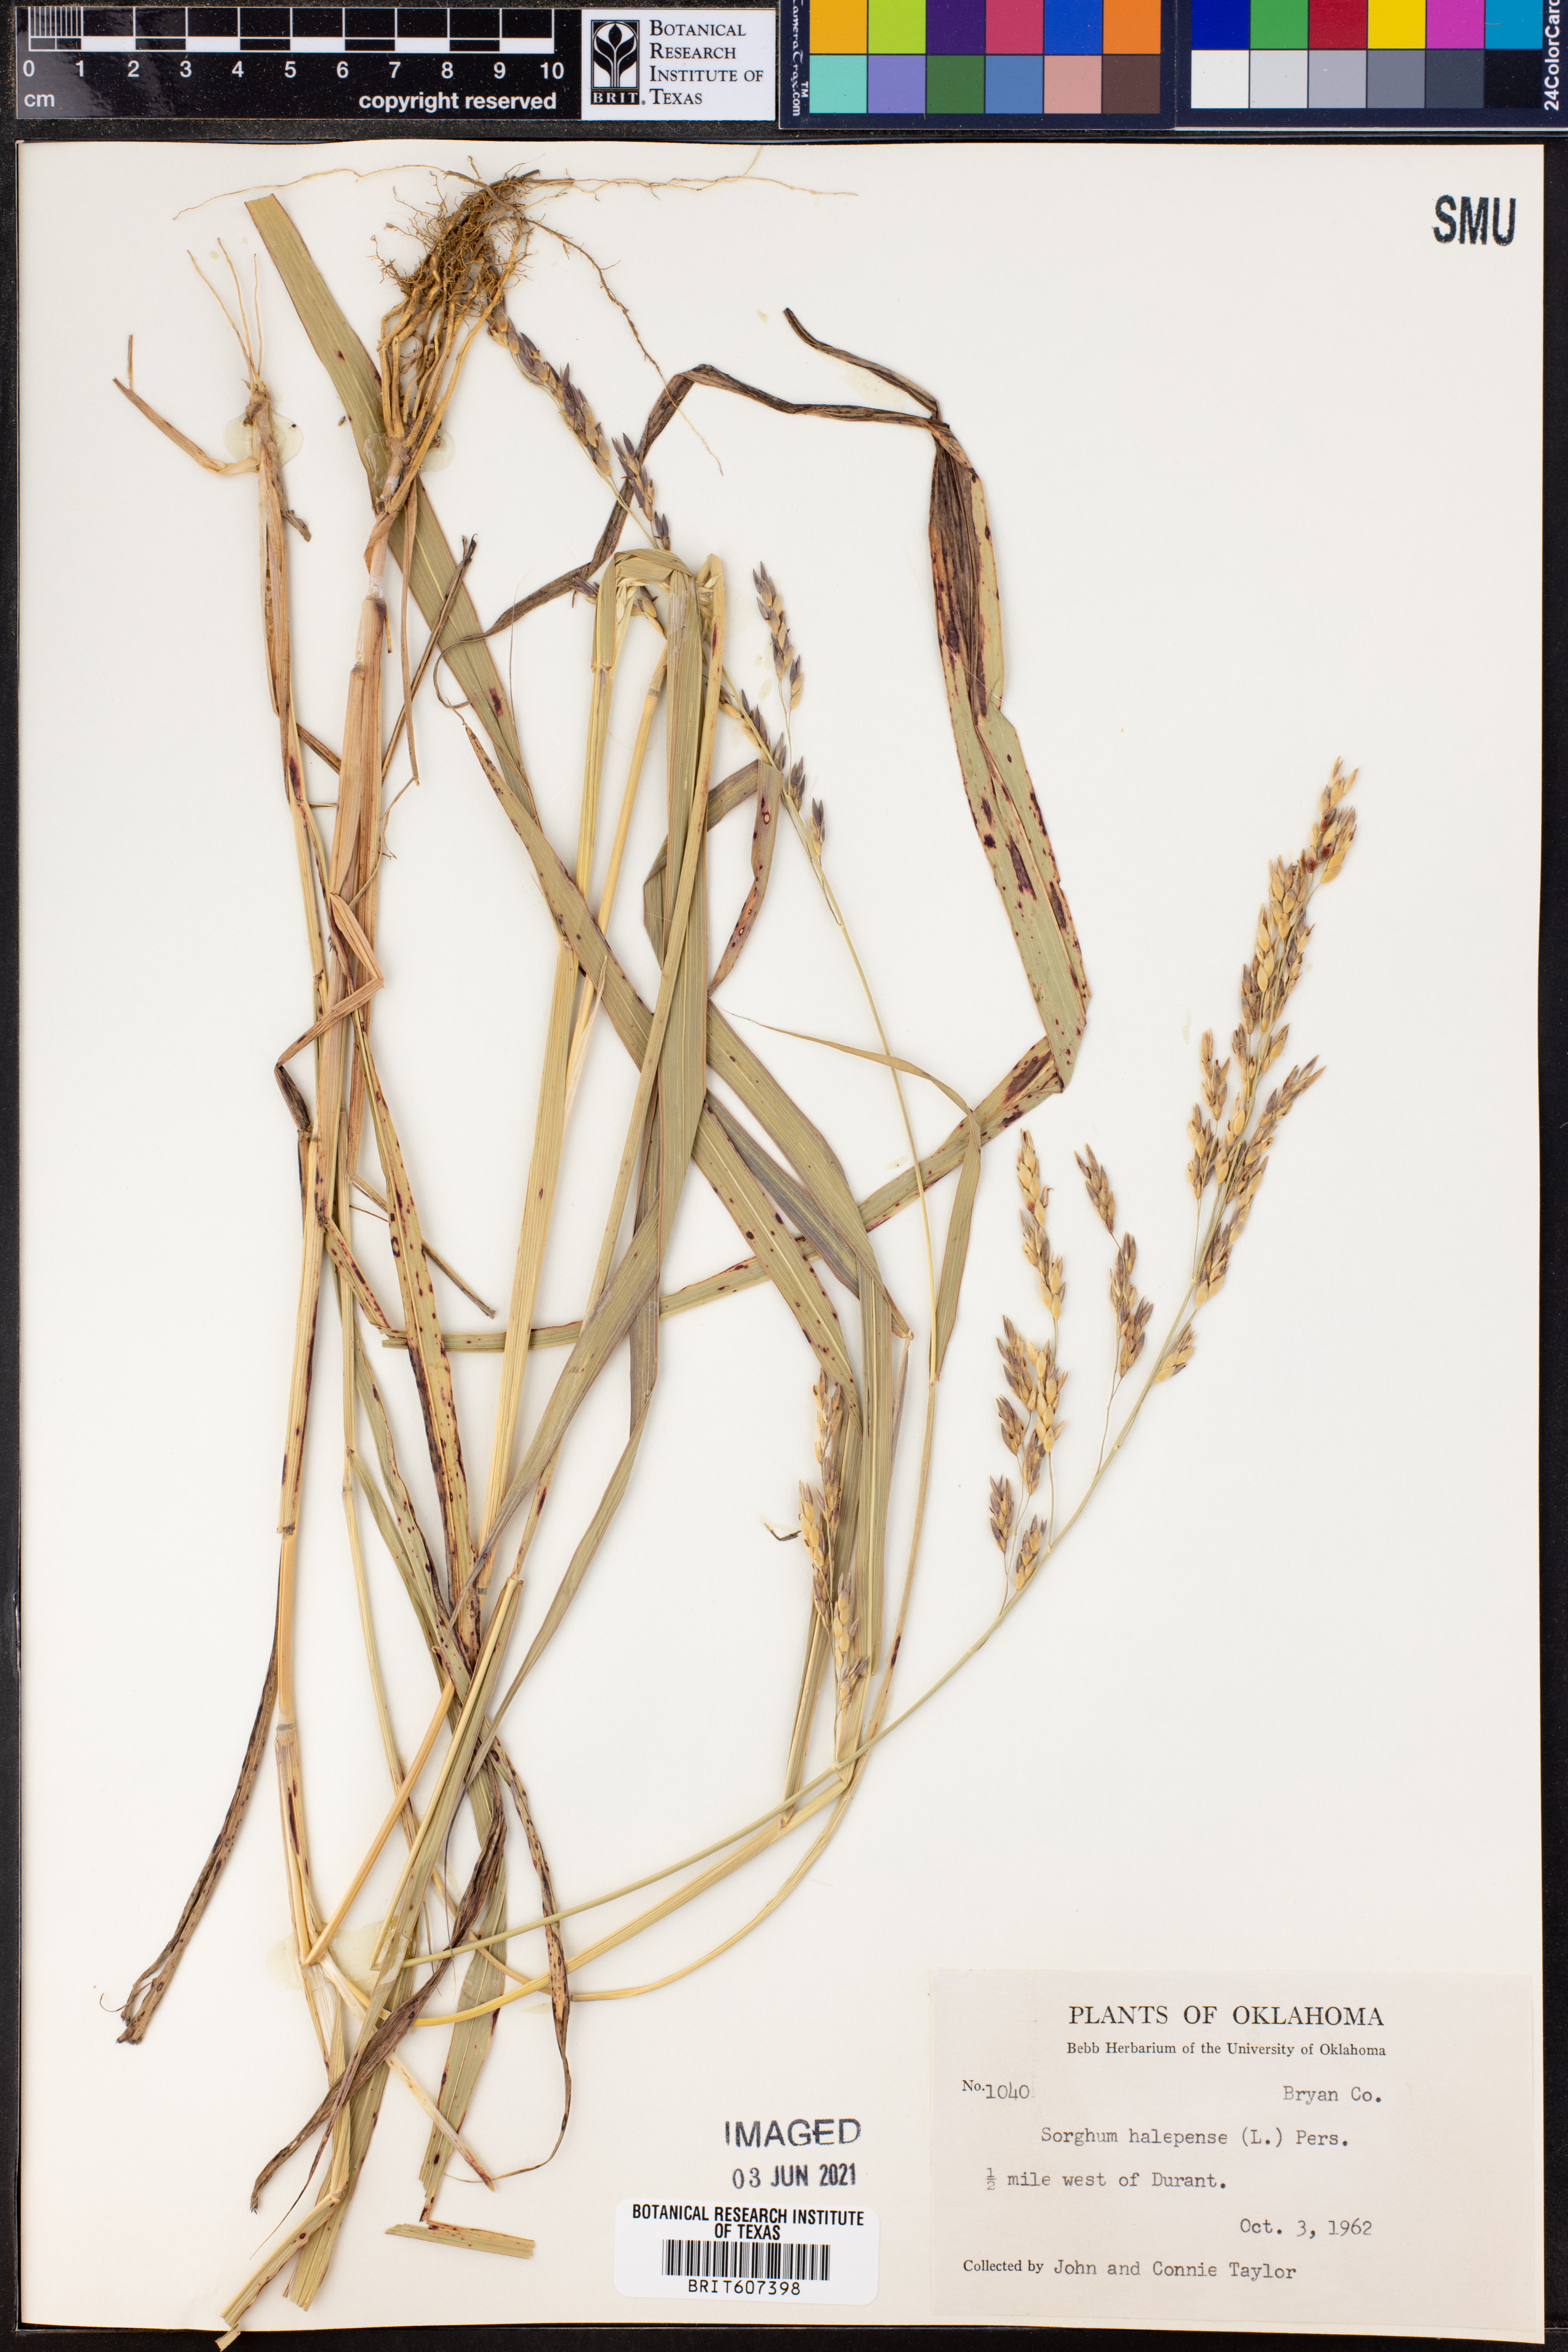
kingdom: Plantae
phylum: Tracheophyta
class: Liliopsida
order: Poales
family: Poaceae
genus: Sorghum
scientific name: Sorghum halepense
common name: Johnson-grass
